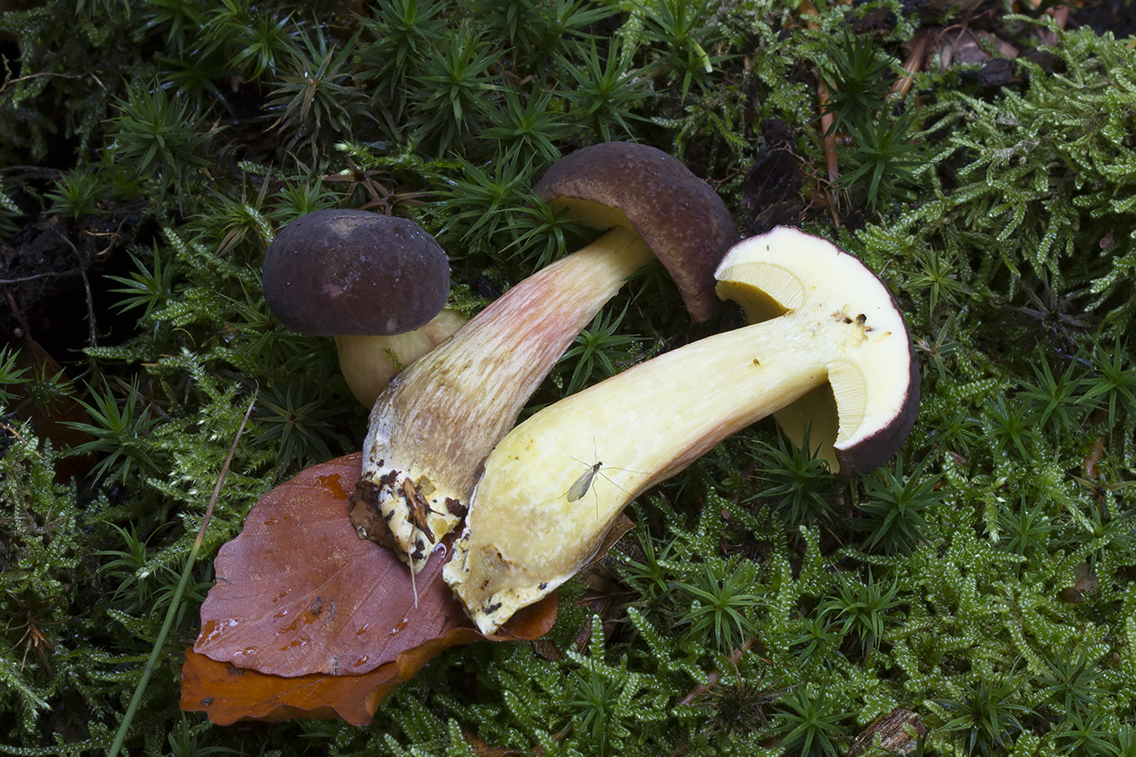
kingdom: Fungi
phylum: Basidiomycota
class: Agaricomycetes
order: Boletales
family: Boletaceae
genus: Xerocomellus
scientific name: Xerocomellus pruinatus
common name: dugget rørhat
